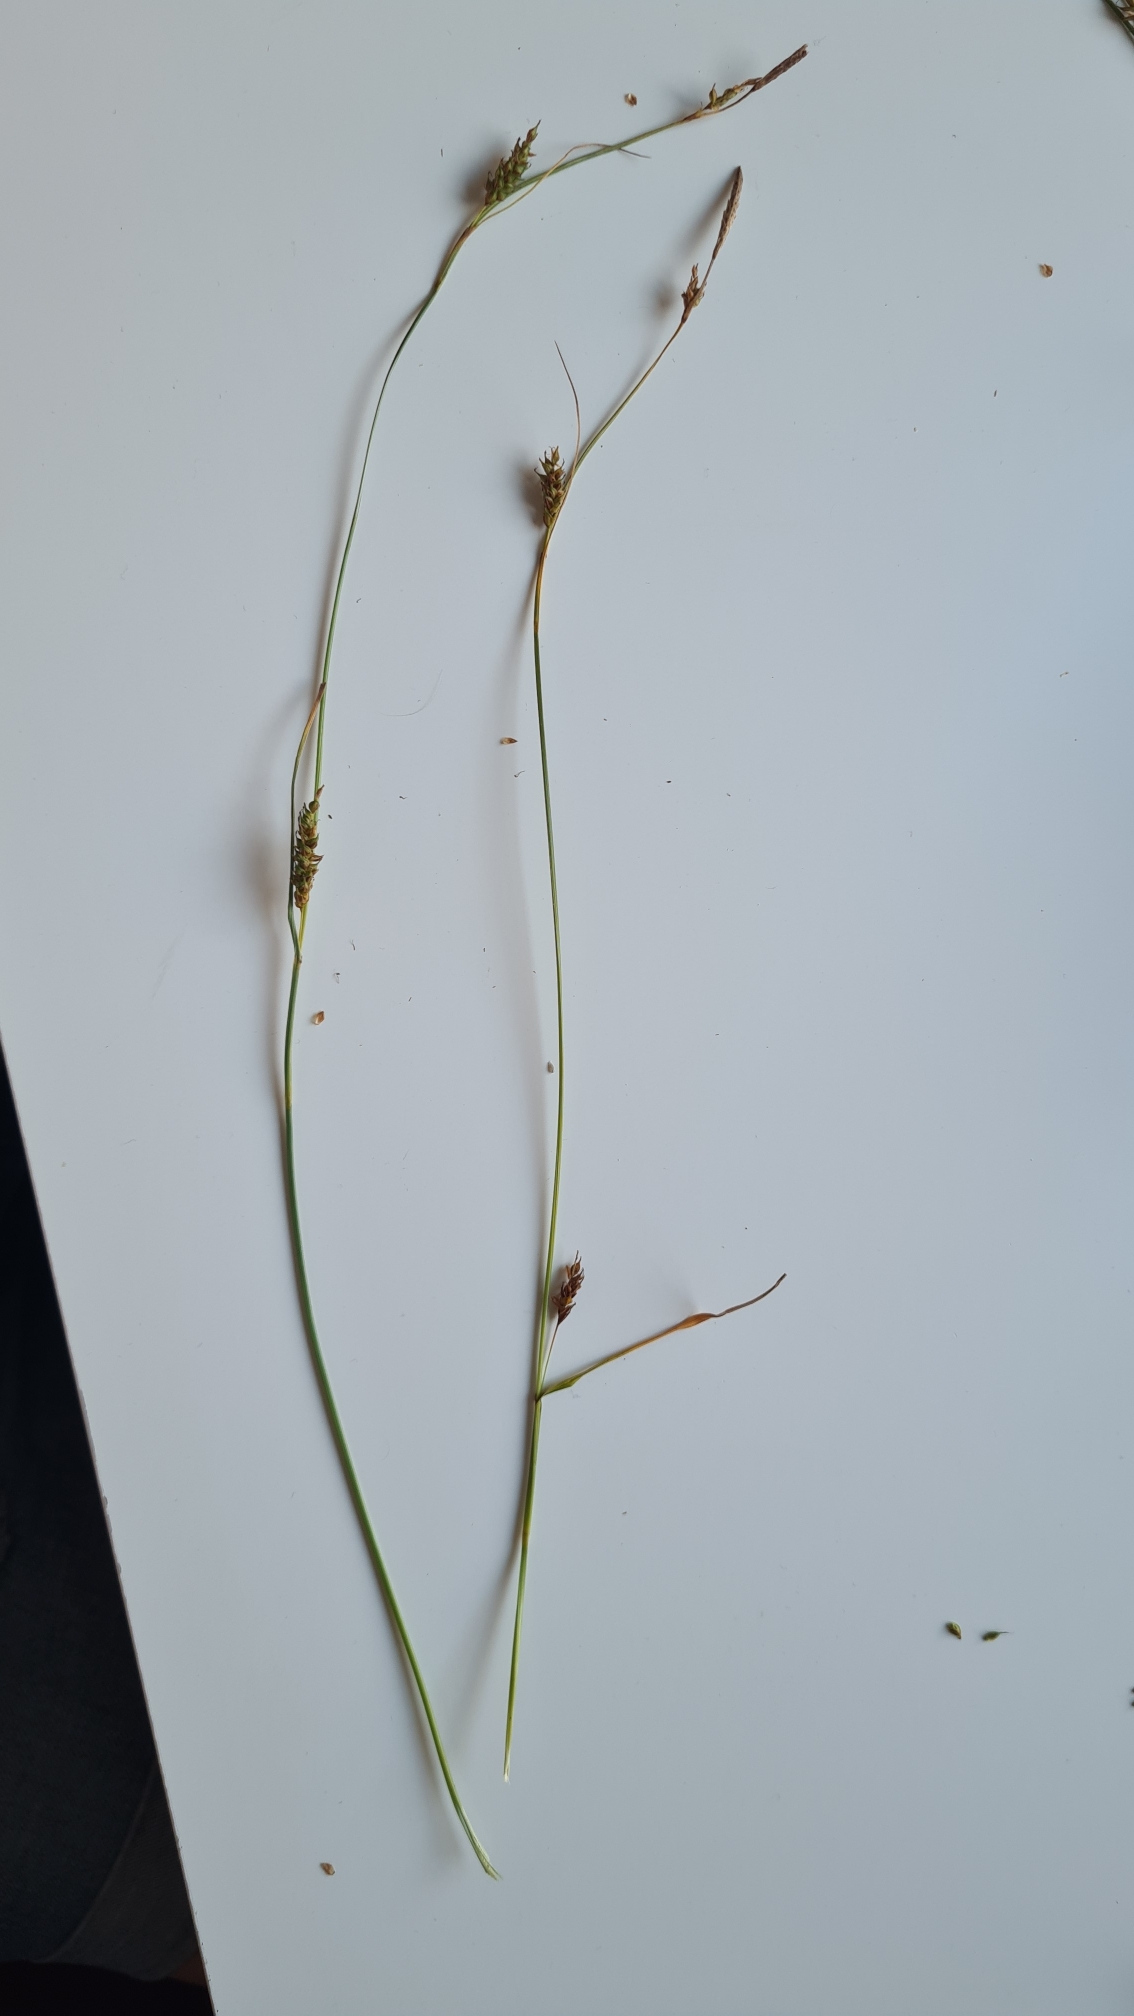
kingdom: Plantae
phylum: Tracheophyta
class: Liliopsida
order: Poales
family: Cyperaceae
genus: Carex
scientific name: Carex distans
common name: Fjernakset star
